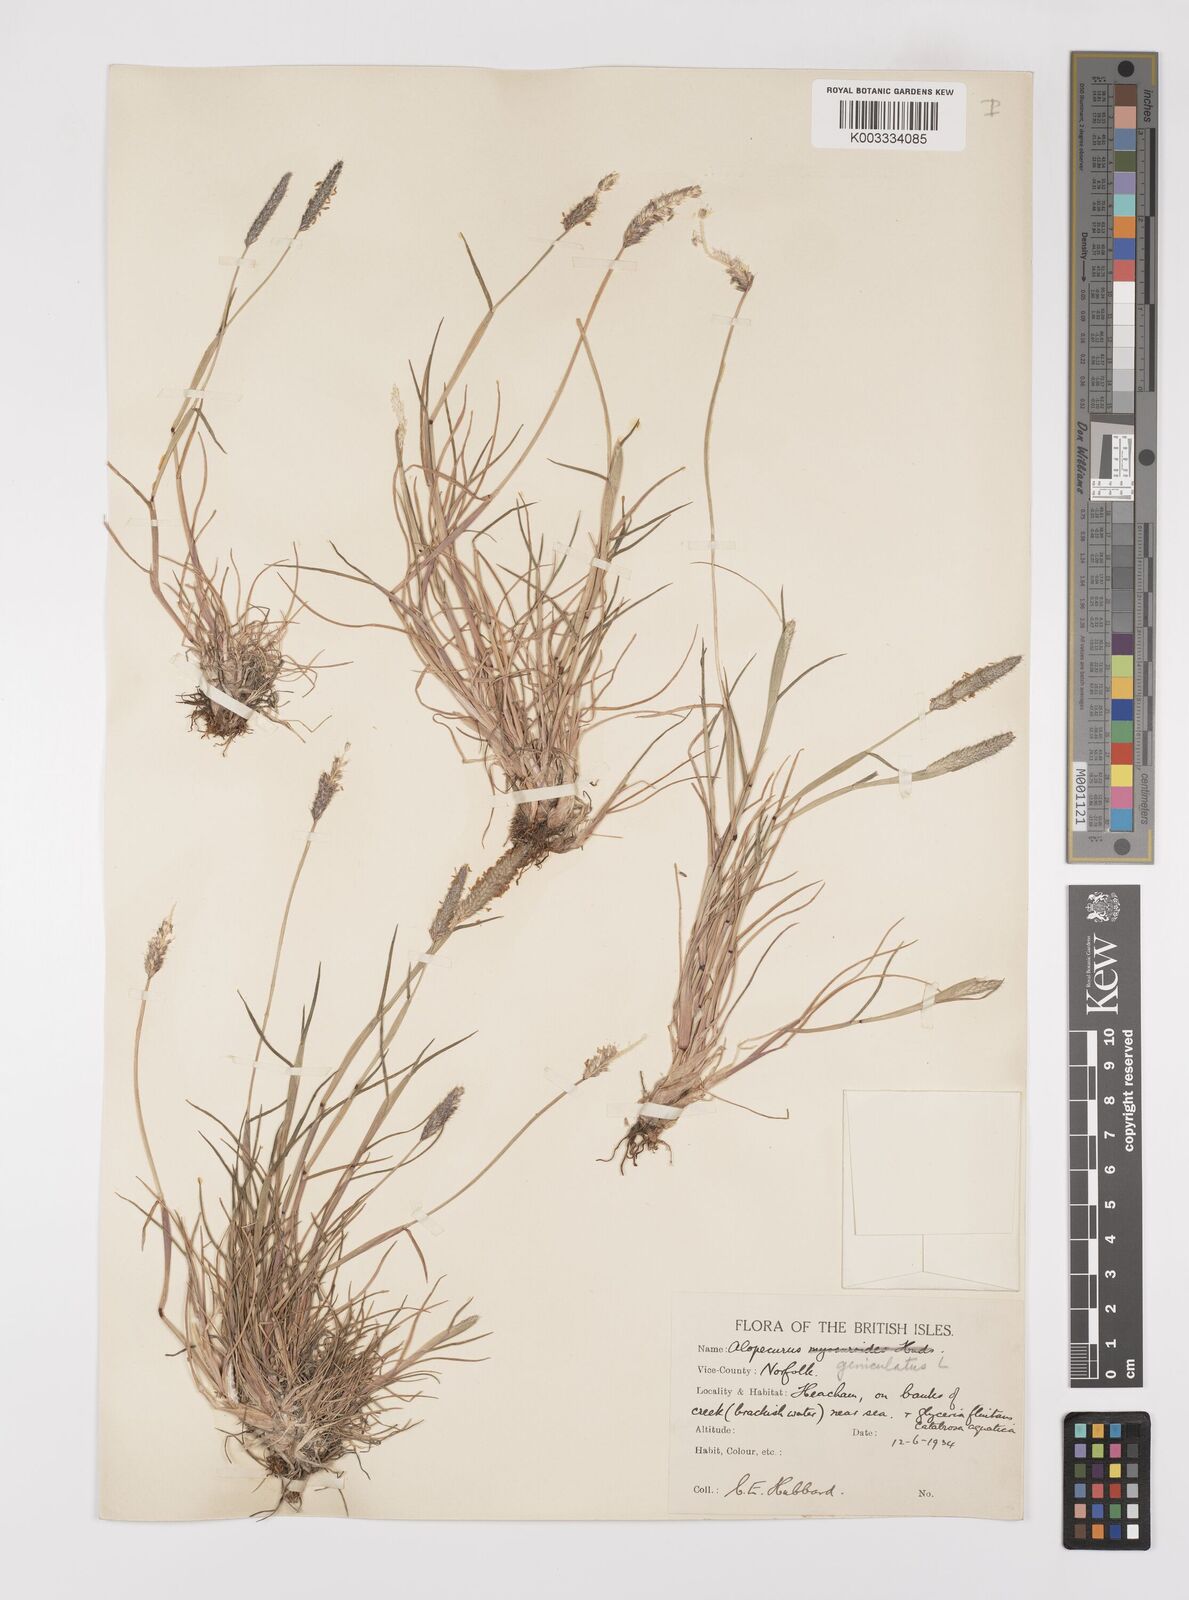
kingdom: Plantae
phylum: Tracheophyta
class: Liliopsida
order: Poales
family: Poaceae
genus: Alopecurus
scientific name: Alopecurus geniculatus
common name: Water foxtail
